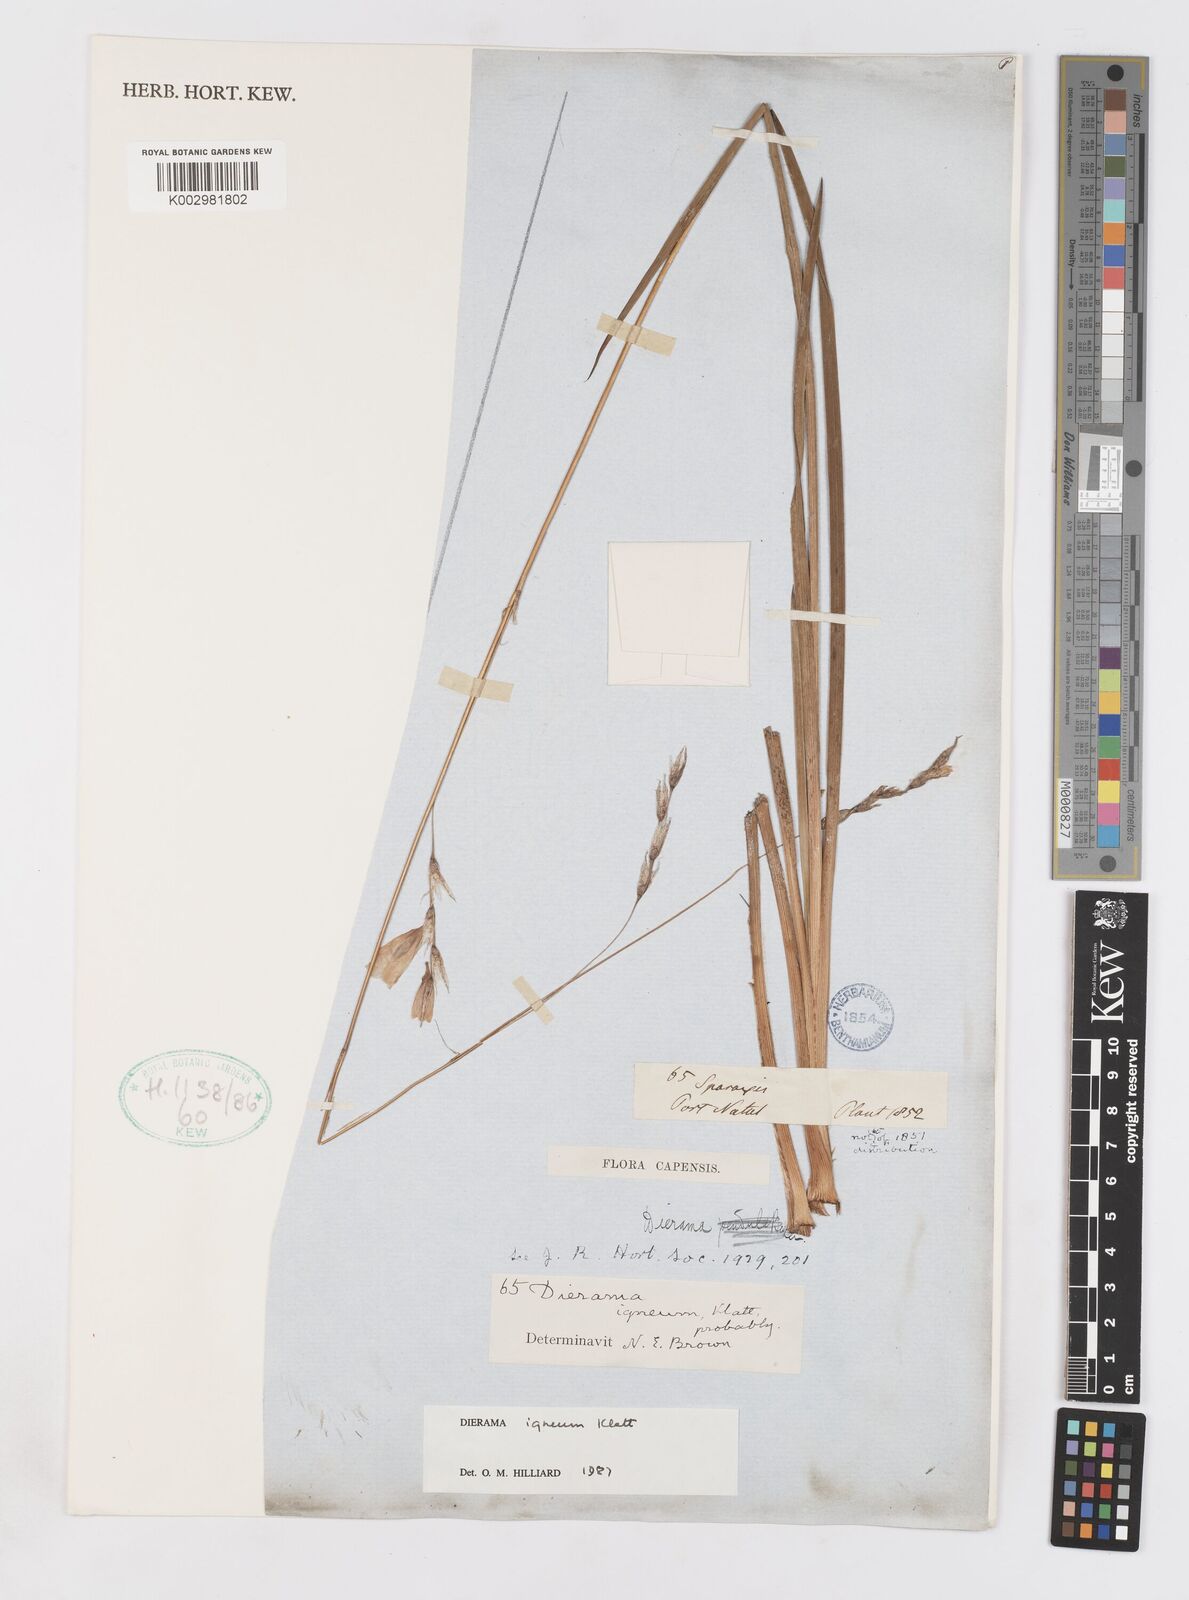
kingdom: Plantae
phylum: Tracheophyta
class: Liliopsida
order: Asparagales
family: Iridaceae
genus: Dierama
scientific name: Dierama igneum
